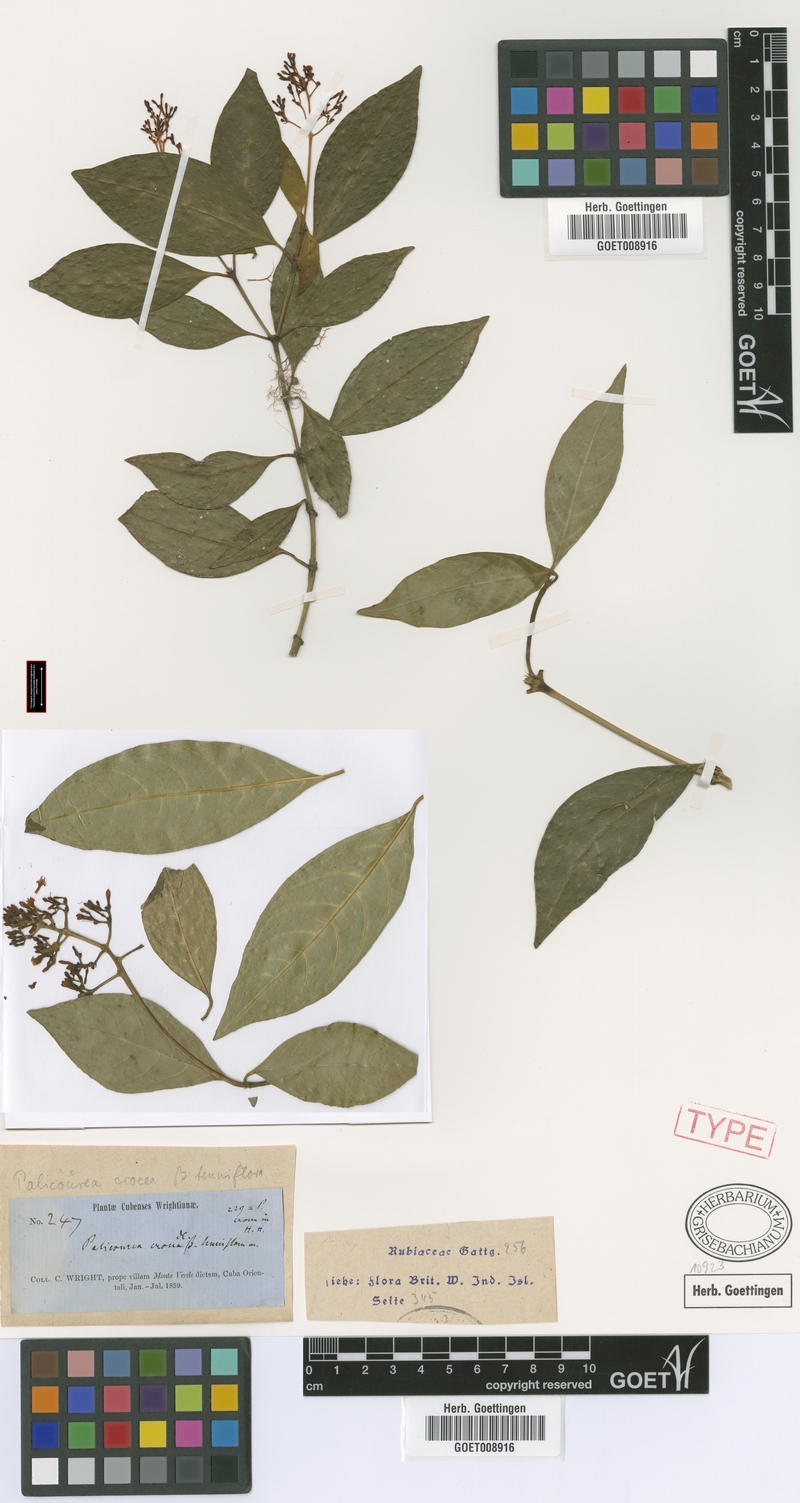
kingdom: Plantae
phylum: Tracheophyta
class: Magnoliopsida
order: Gentianales
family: Rubiaceae
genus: Palicourea
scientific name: Palicourea crocea
